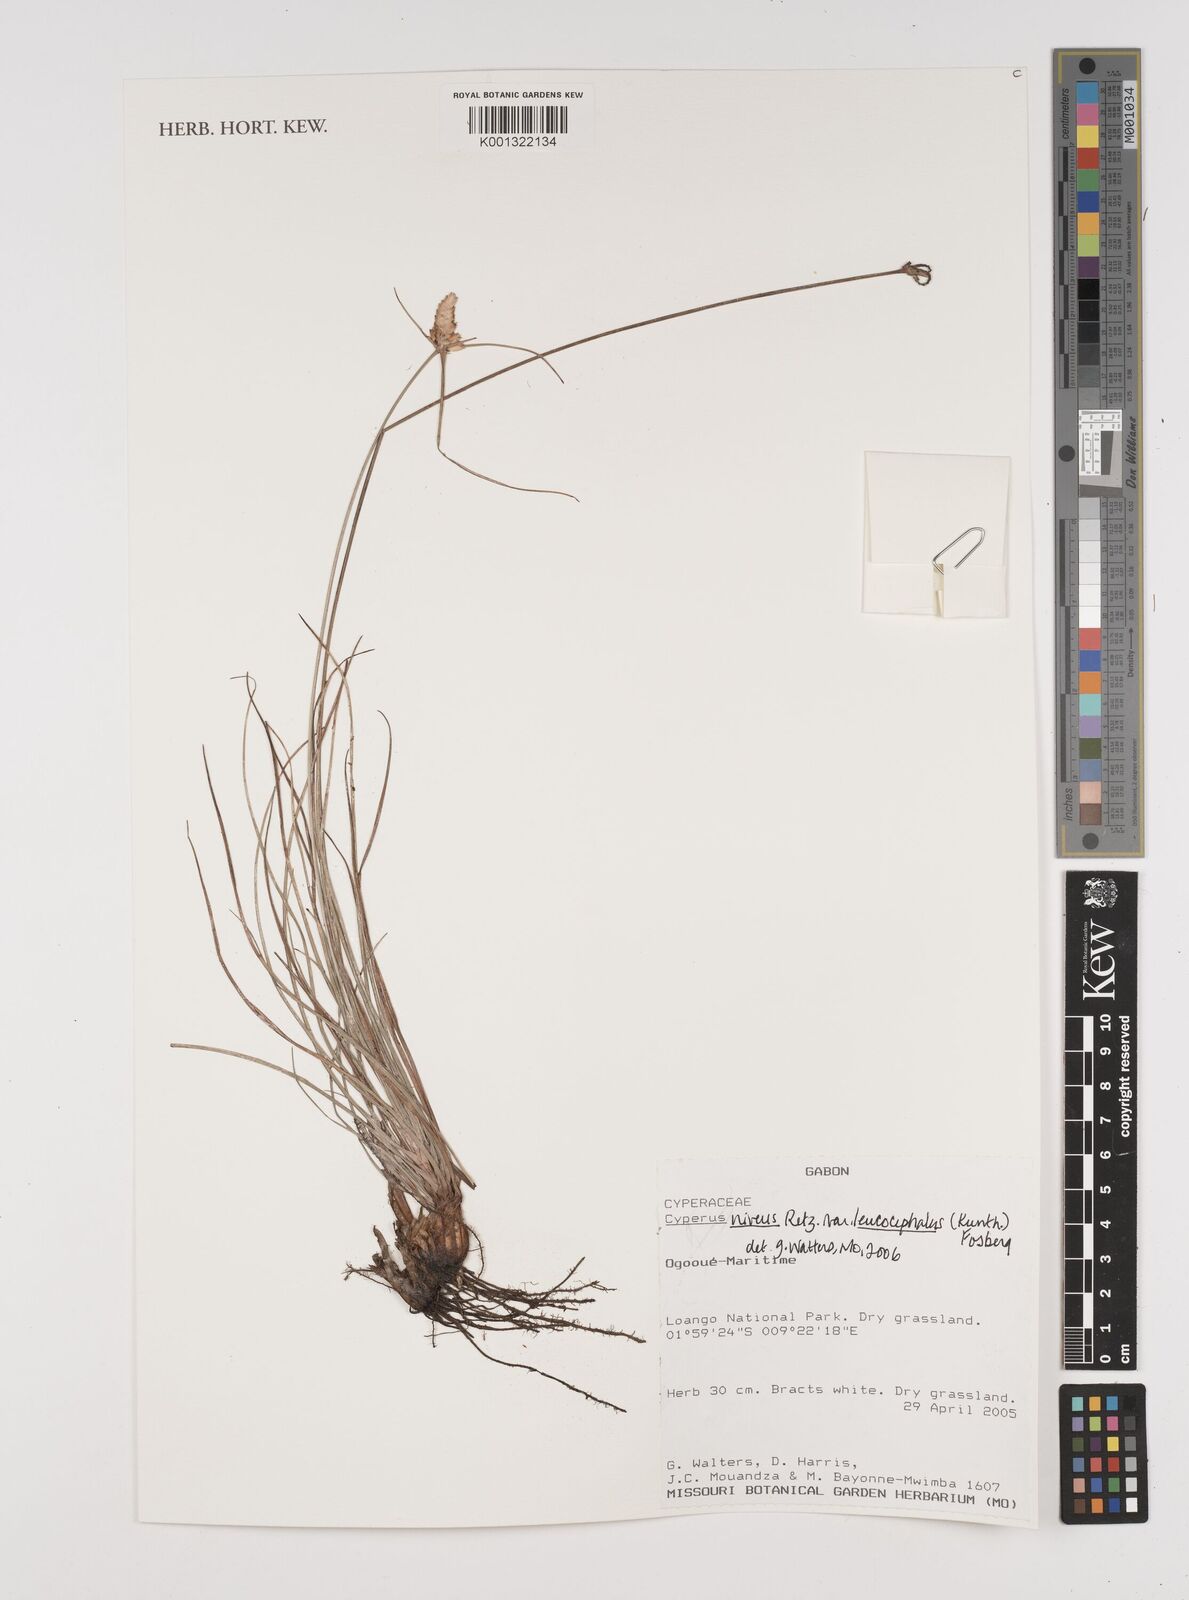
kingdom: Plantae
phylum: Tracheophyta
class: Liliopsida
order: Poales
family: Cyperaceae
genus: Cyperus
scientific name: Cyperus niveus
